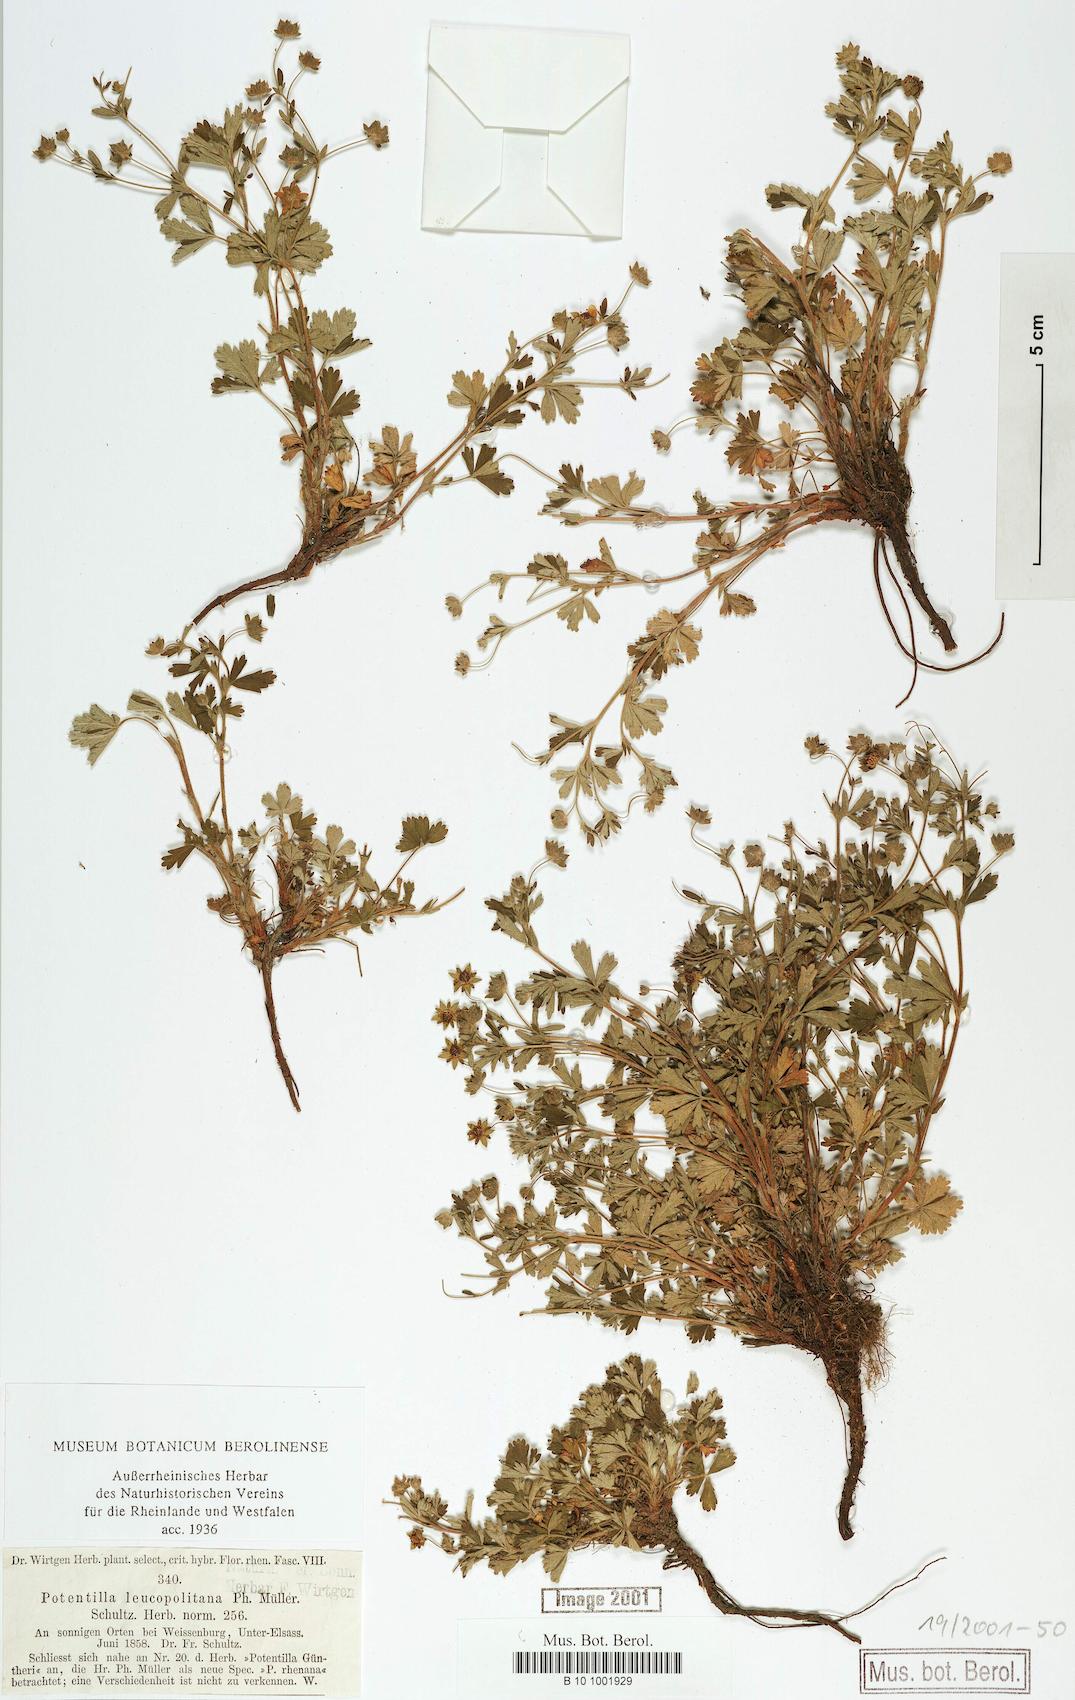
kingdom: Plantae
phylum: Tracheophyta
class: Magnoliopsida
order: Rosales
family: Rosaceae
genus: Potentilla
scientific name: Potentilla leucopolitana
